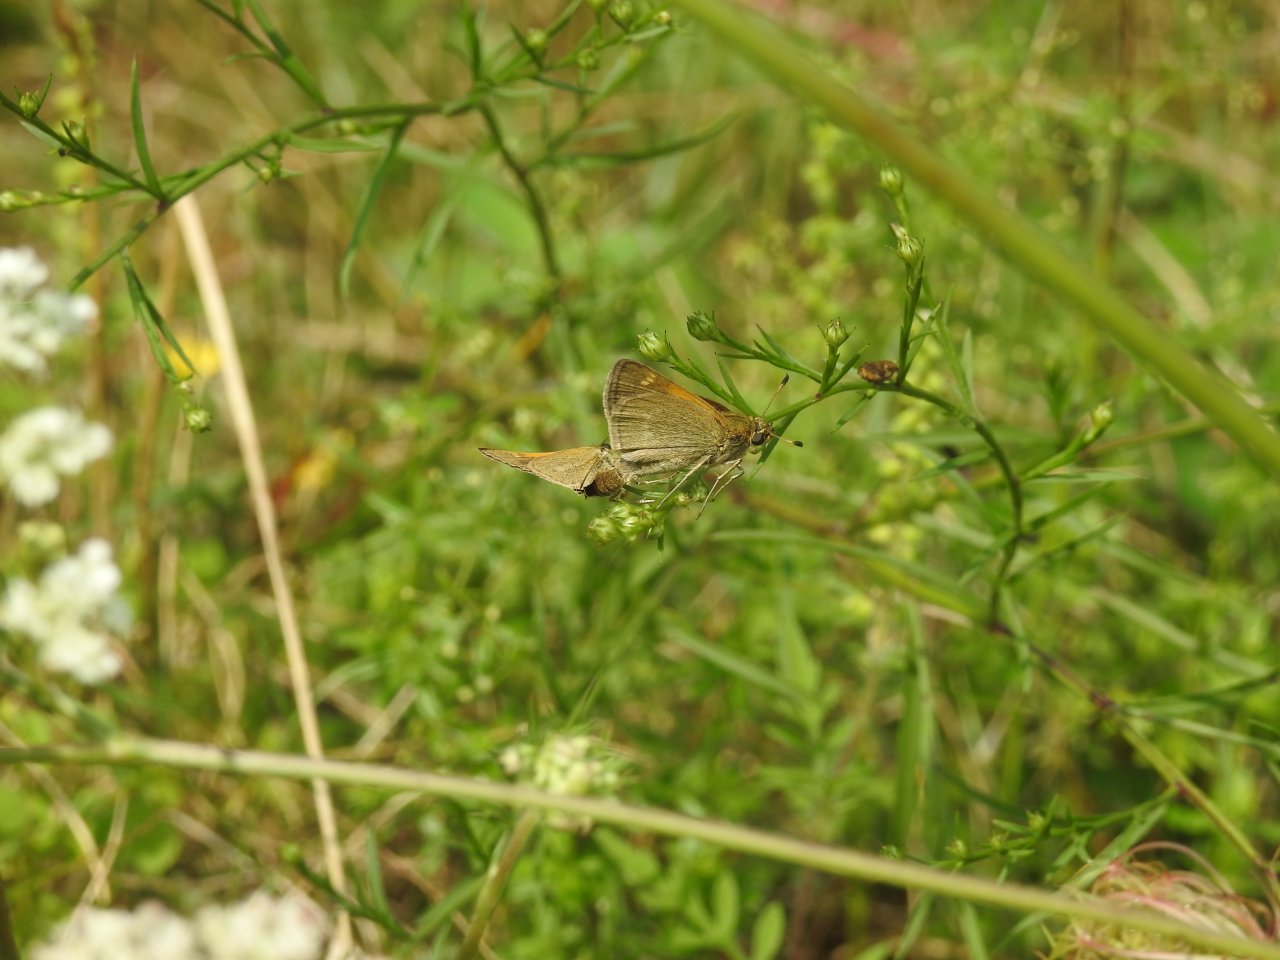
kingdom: Animalia
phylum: Arthropoda
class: Insecta
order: Lepidoptera
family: Hesperiidae
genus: Polites
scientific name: Polites themistocles
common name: Tawny-edged Skipper
